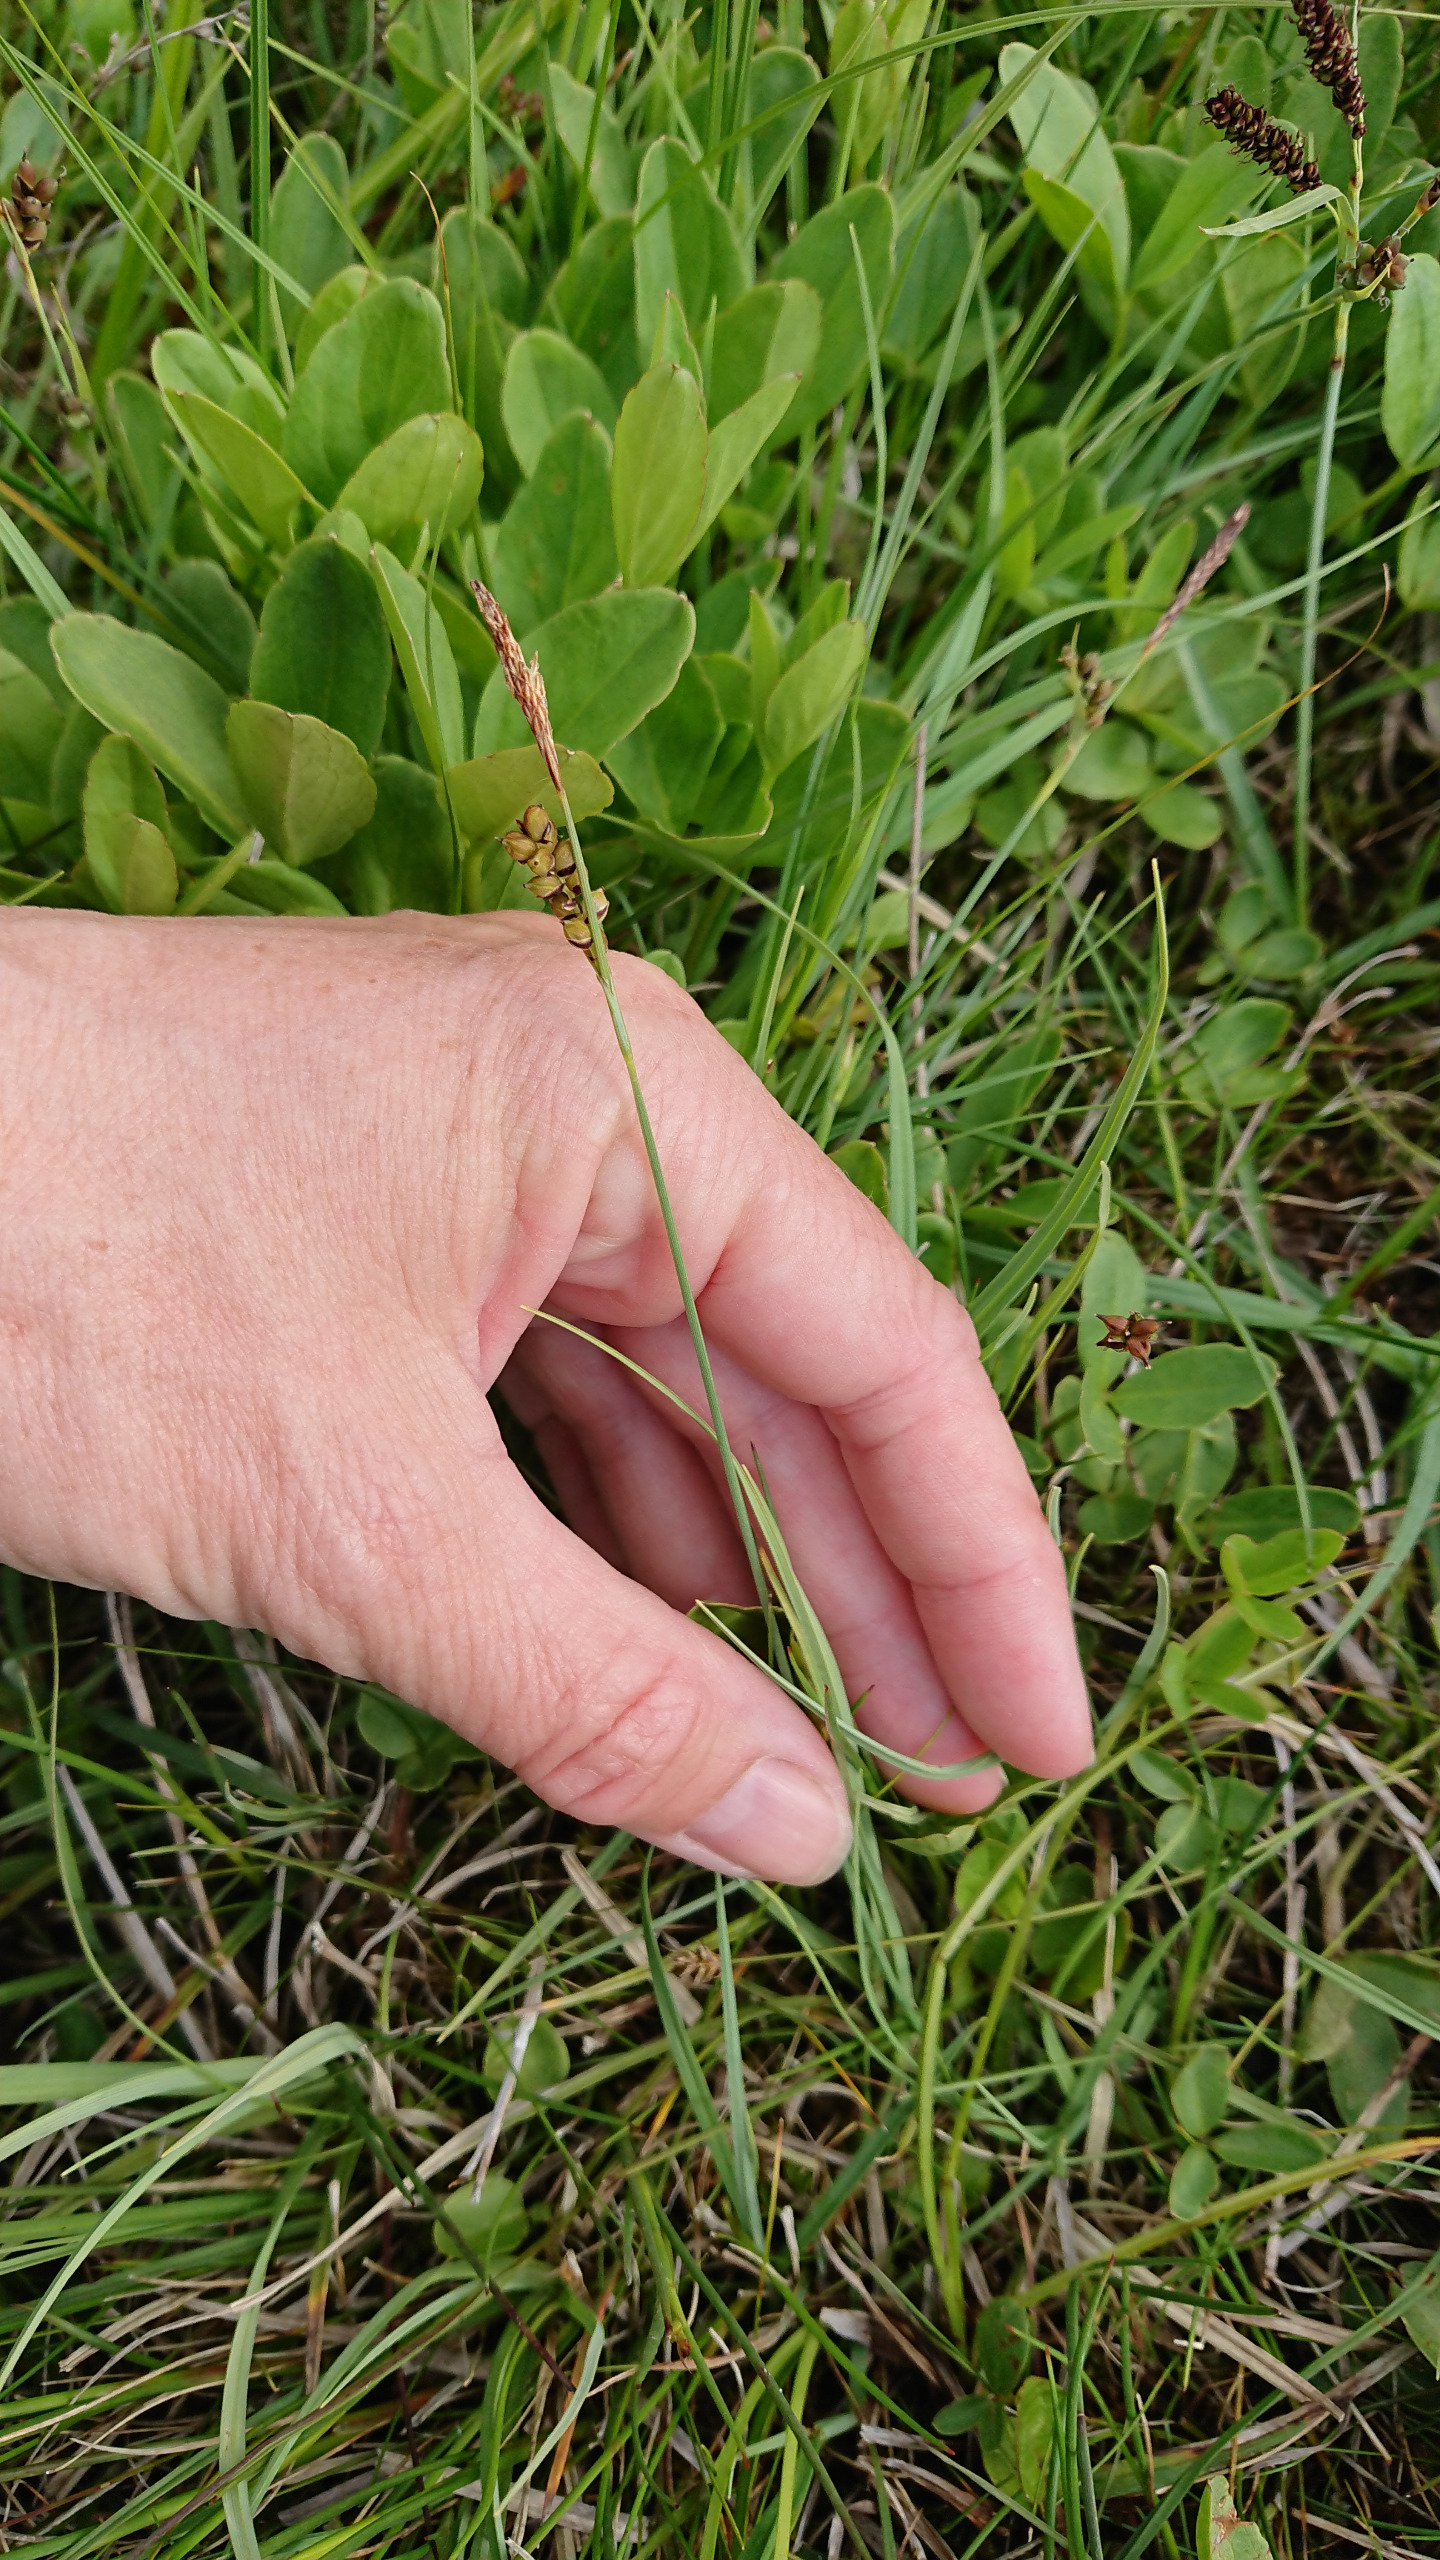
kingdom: Plantae
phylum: Tracheophyta
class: Liliopsida
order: Poales
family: Cyperaceae
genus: Carex
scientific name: Carex panicea
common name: Hirse-star
